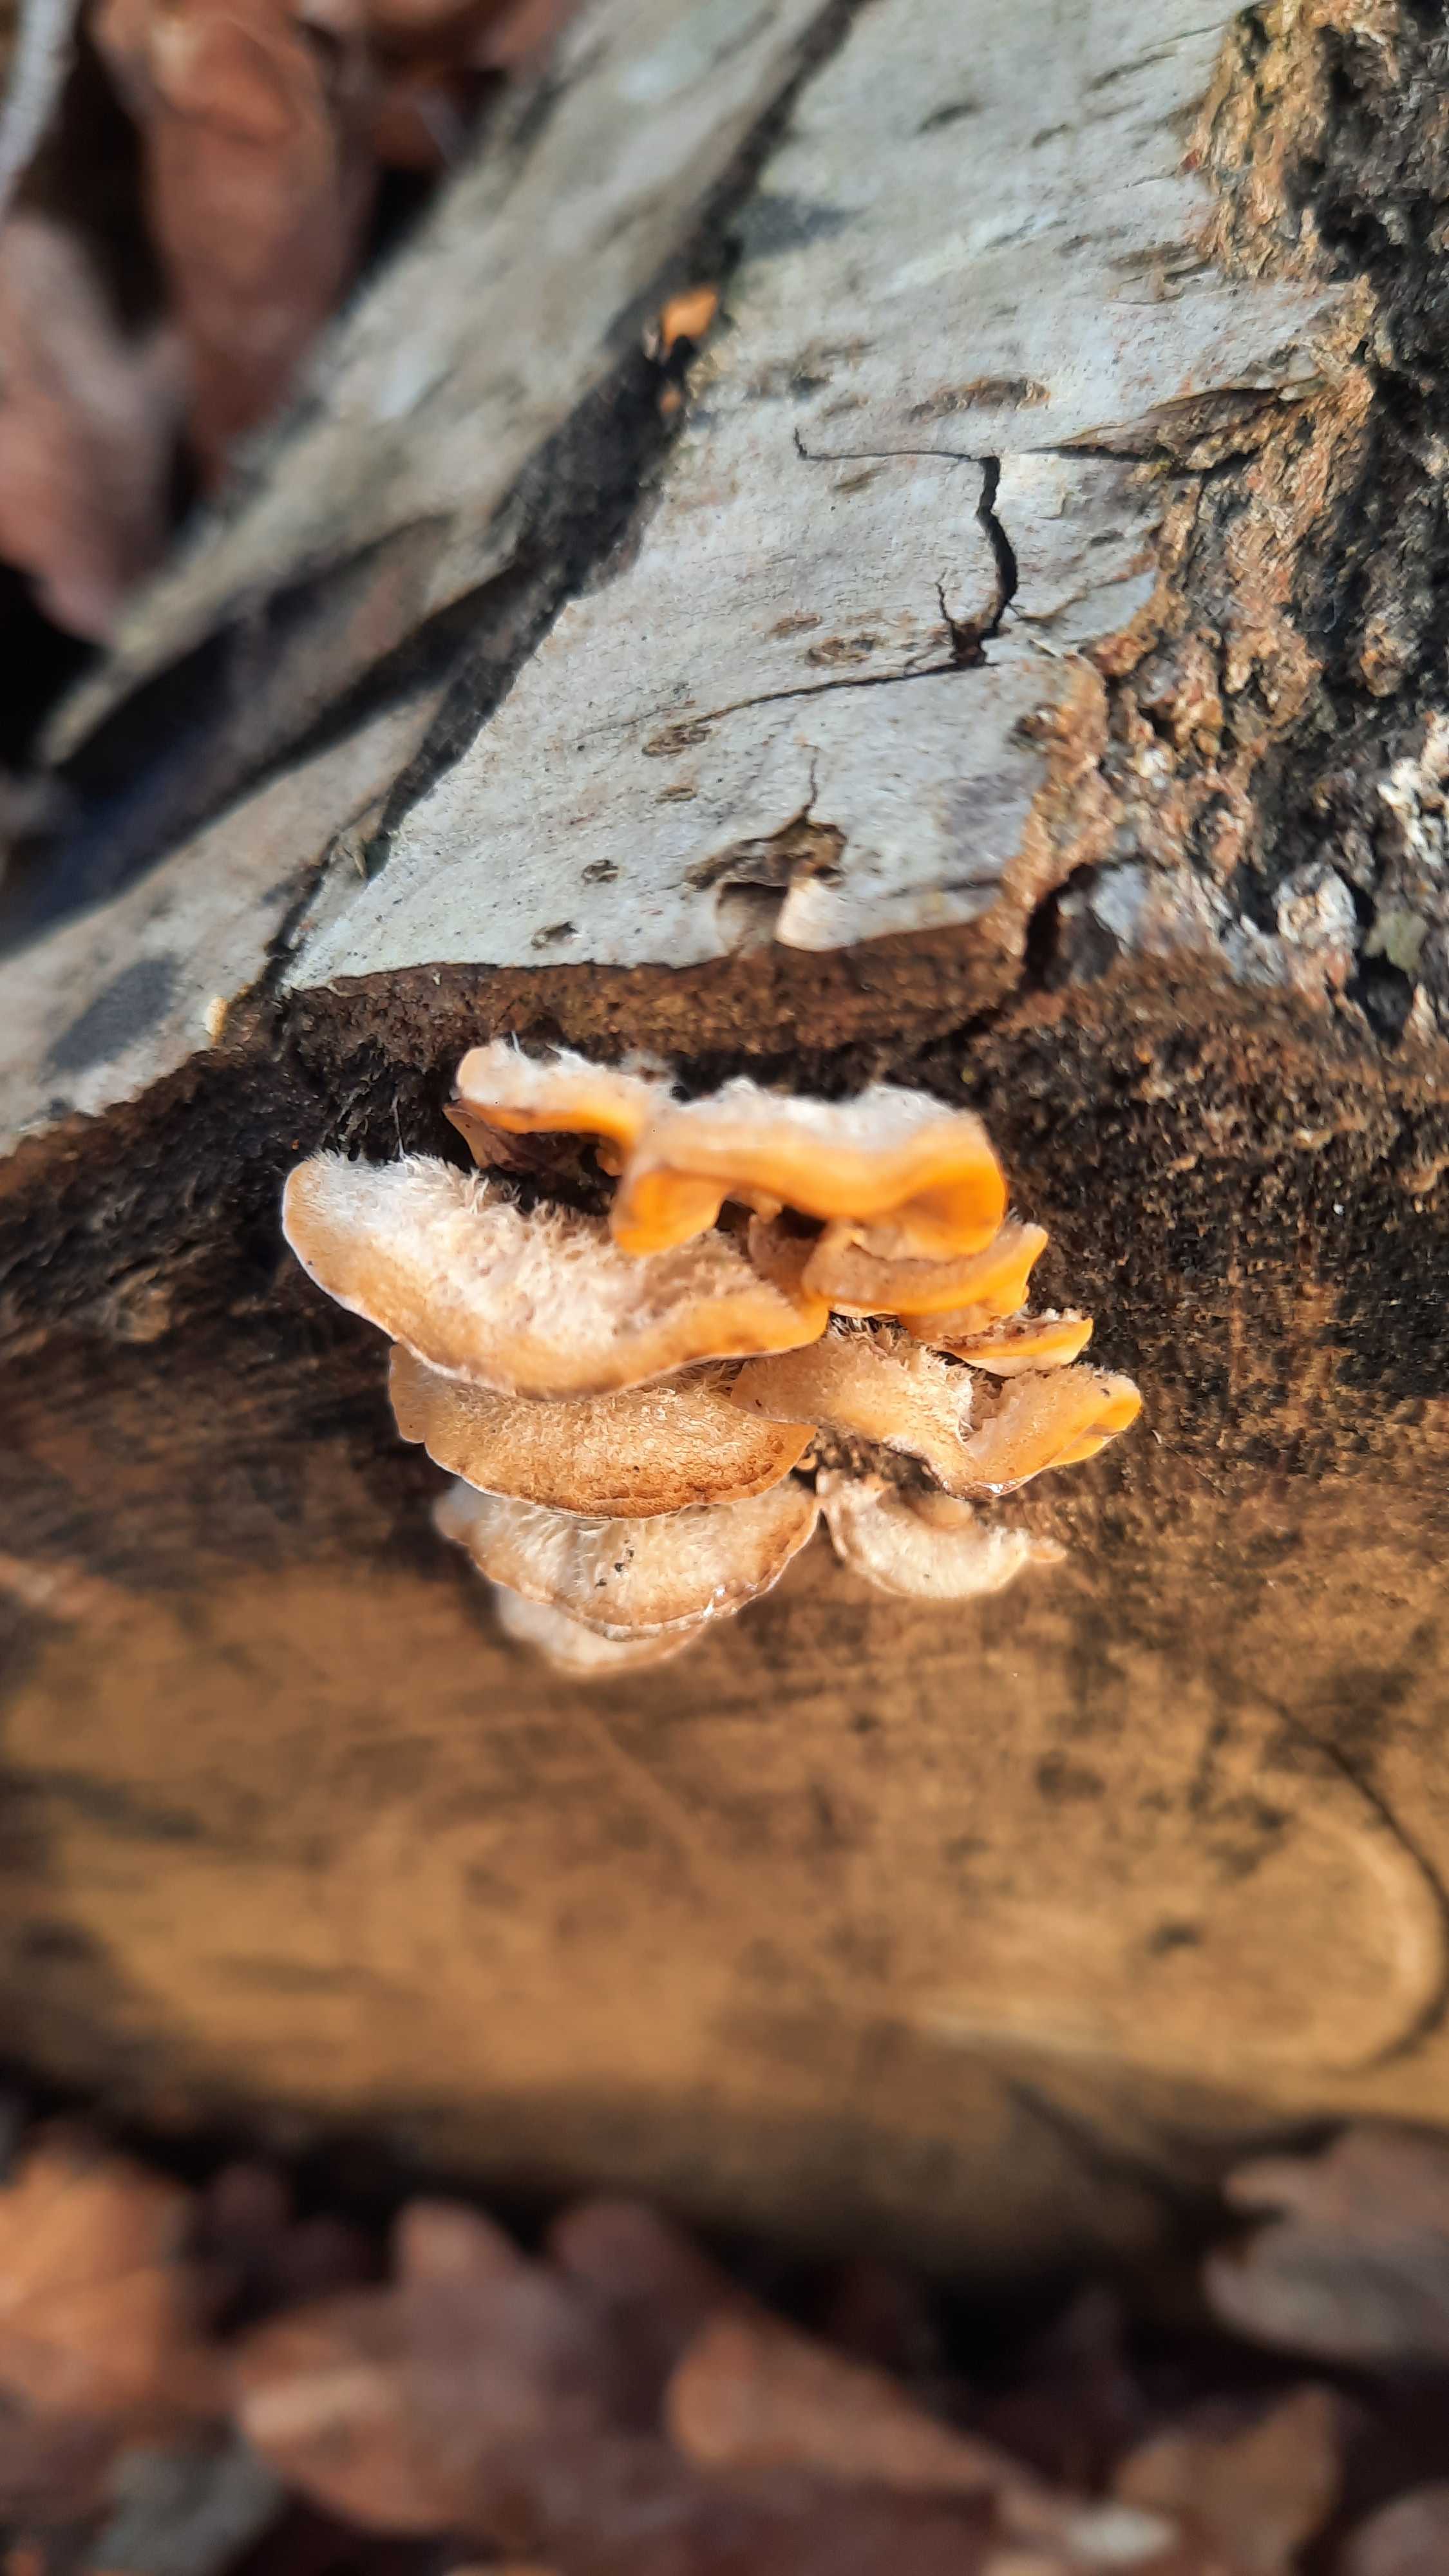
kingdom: Fungi
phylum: Basidiomycota
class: Agaricomycetes
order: Russulales
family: Stereaceae
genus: Stereum
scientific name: Stereum hirsutum
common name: håret lædersvamp
